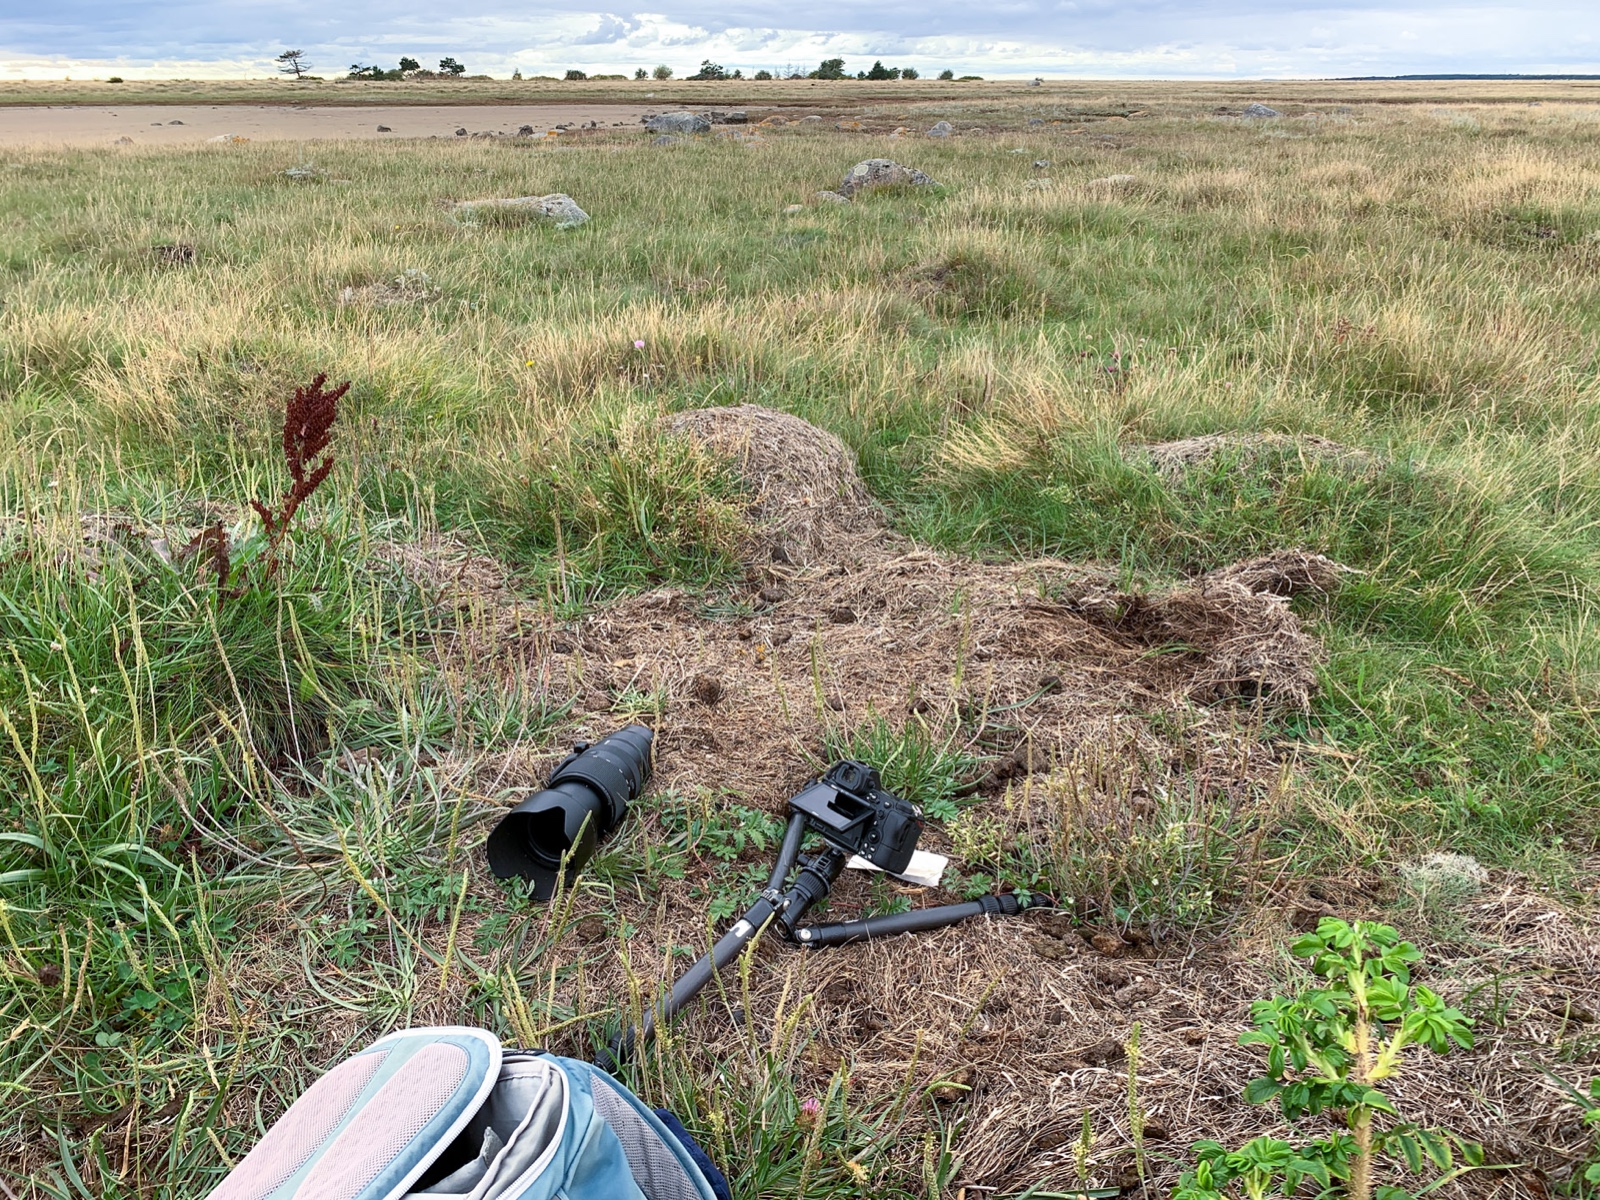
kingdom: Fungi
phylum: Ascomycota
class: Sordariomycetes
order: Xylariales
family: Xylariaceae
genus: Poronia
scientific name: Poronia punctata
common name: stor priksvamp
